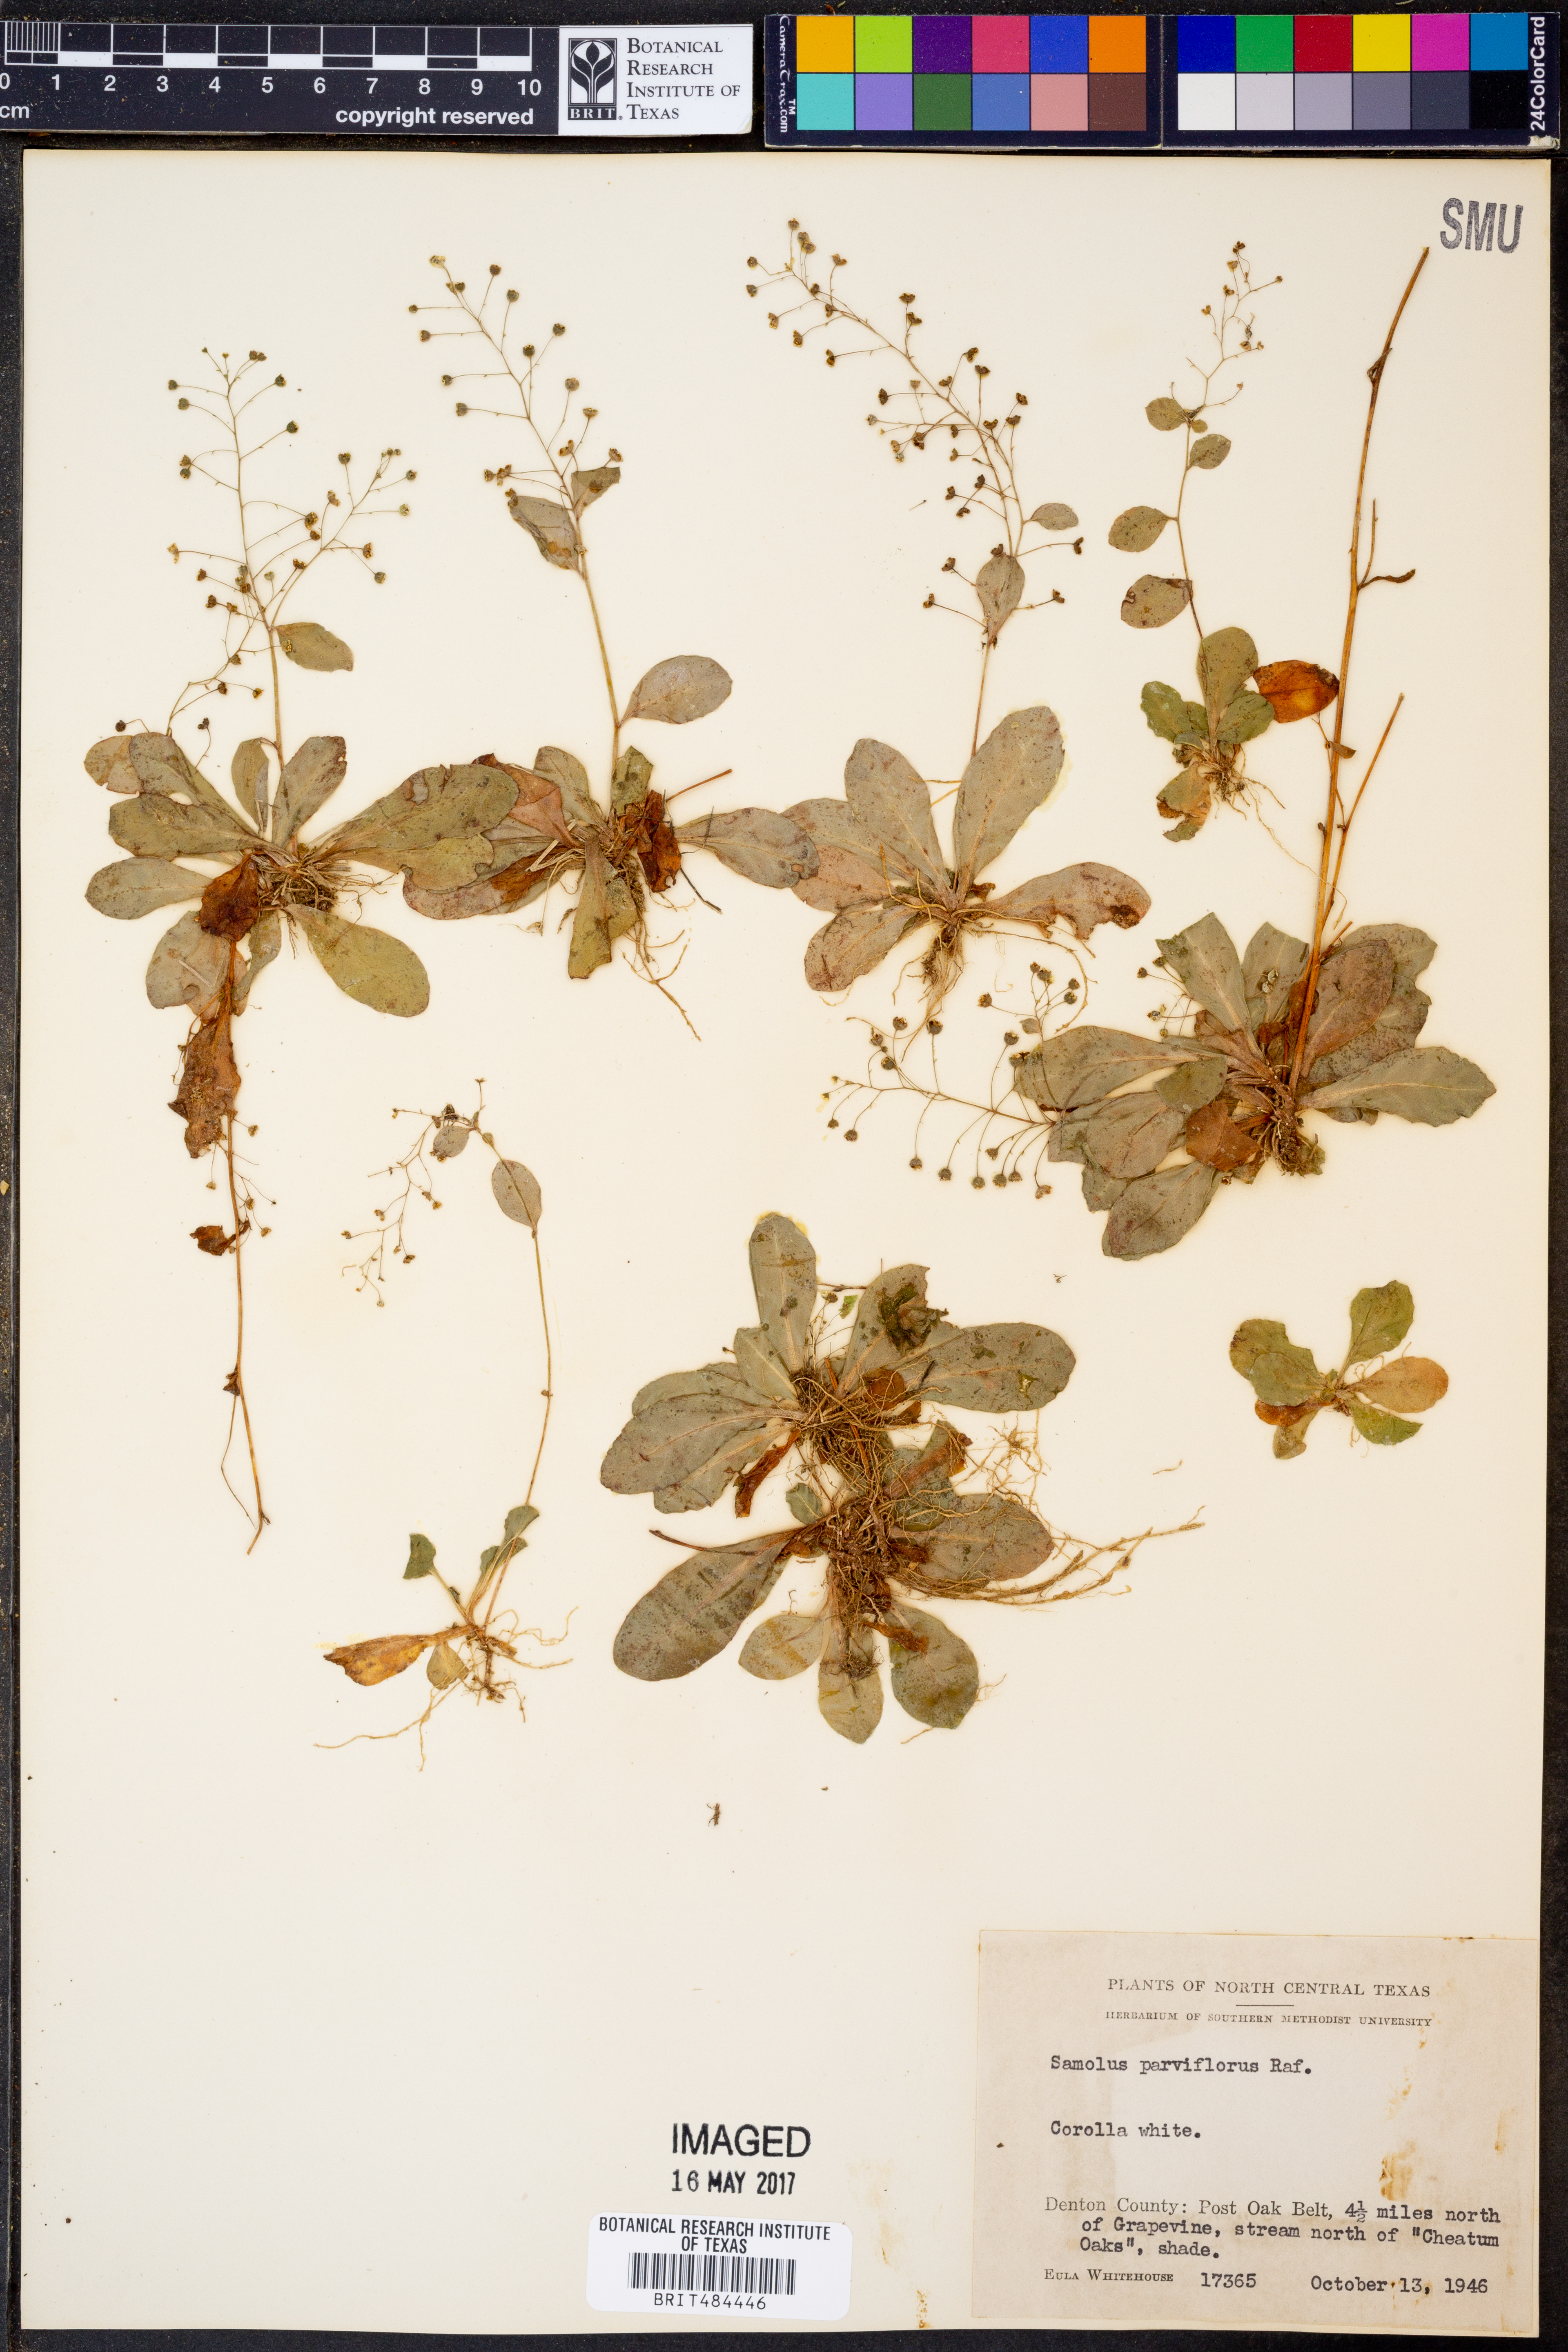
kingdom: Plantae
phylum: Tracheophyta
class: Magnoliopsida
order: Ericales
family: Primulaceae
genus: Samolus
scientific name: Samolus parviflorus
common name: False water pimpernel
